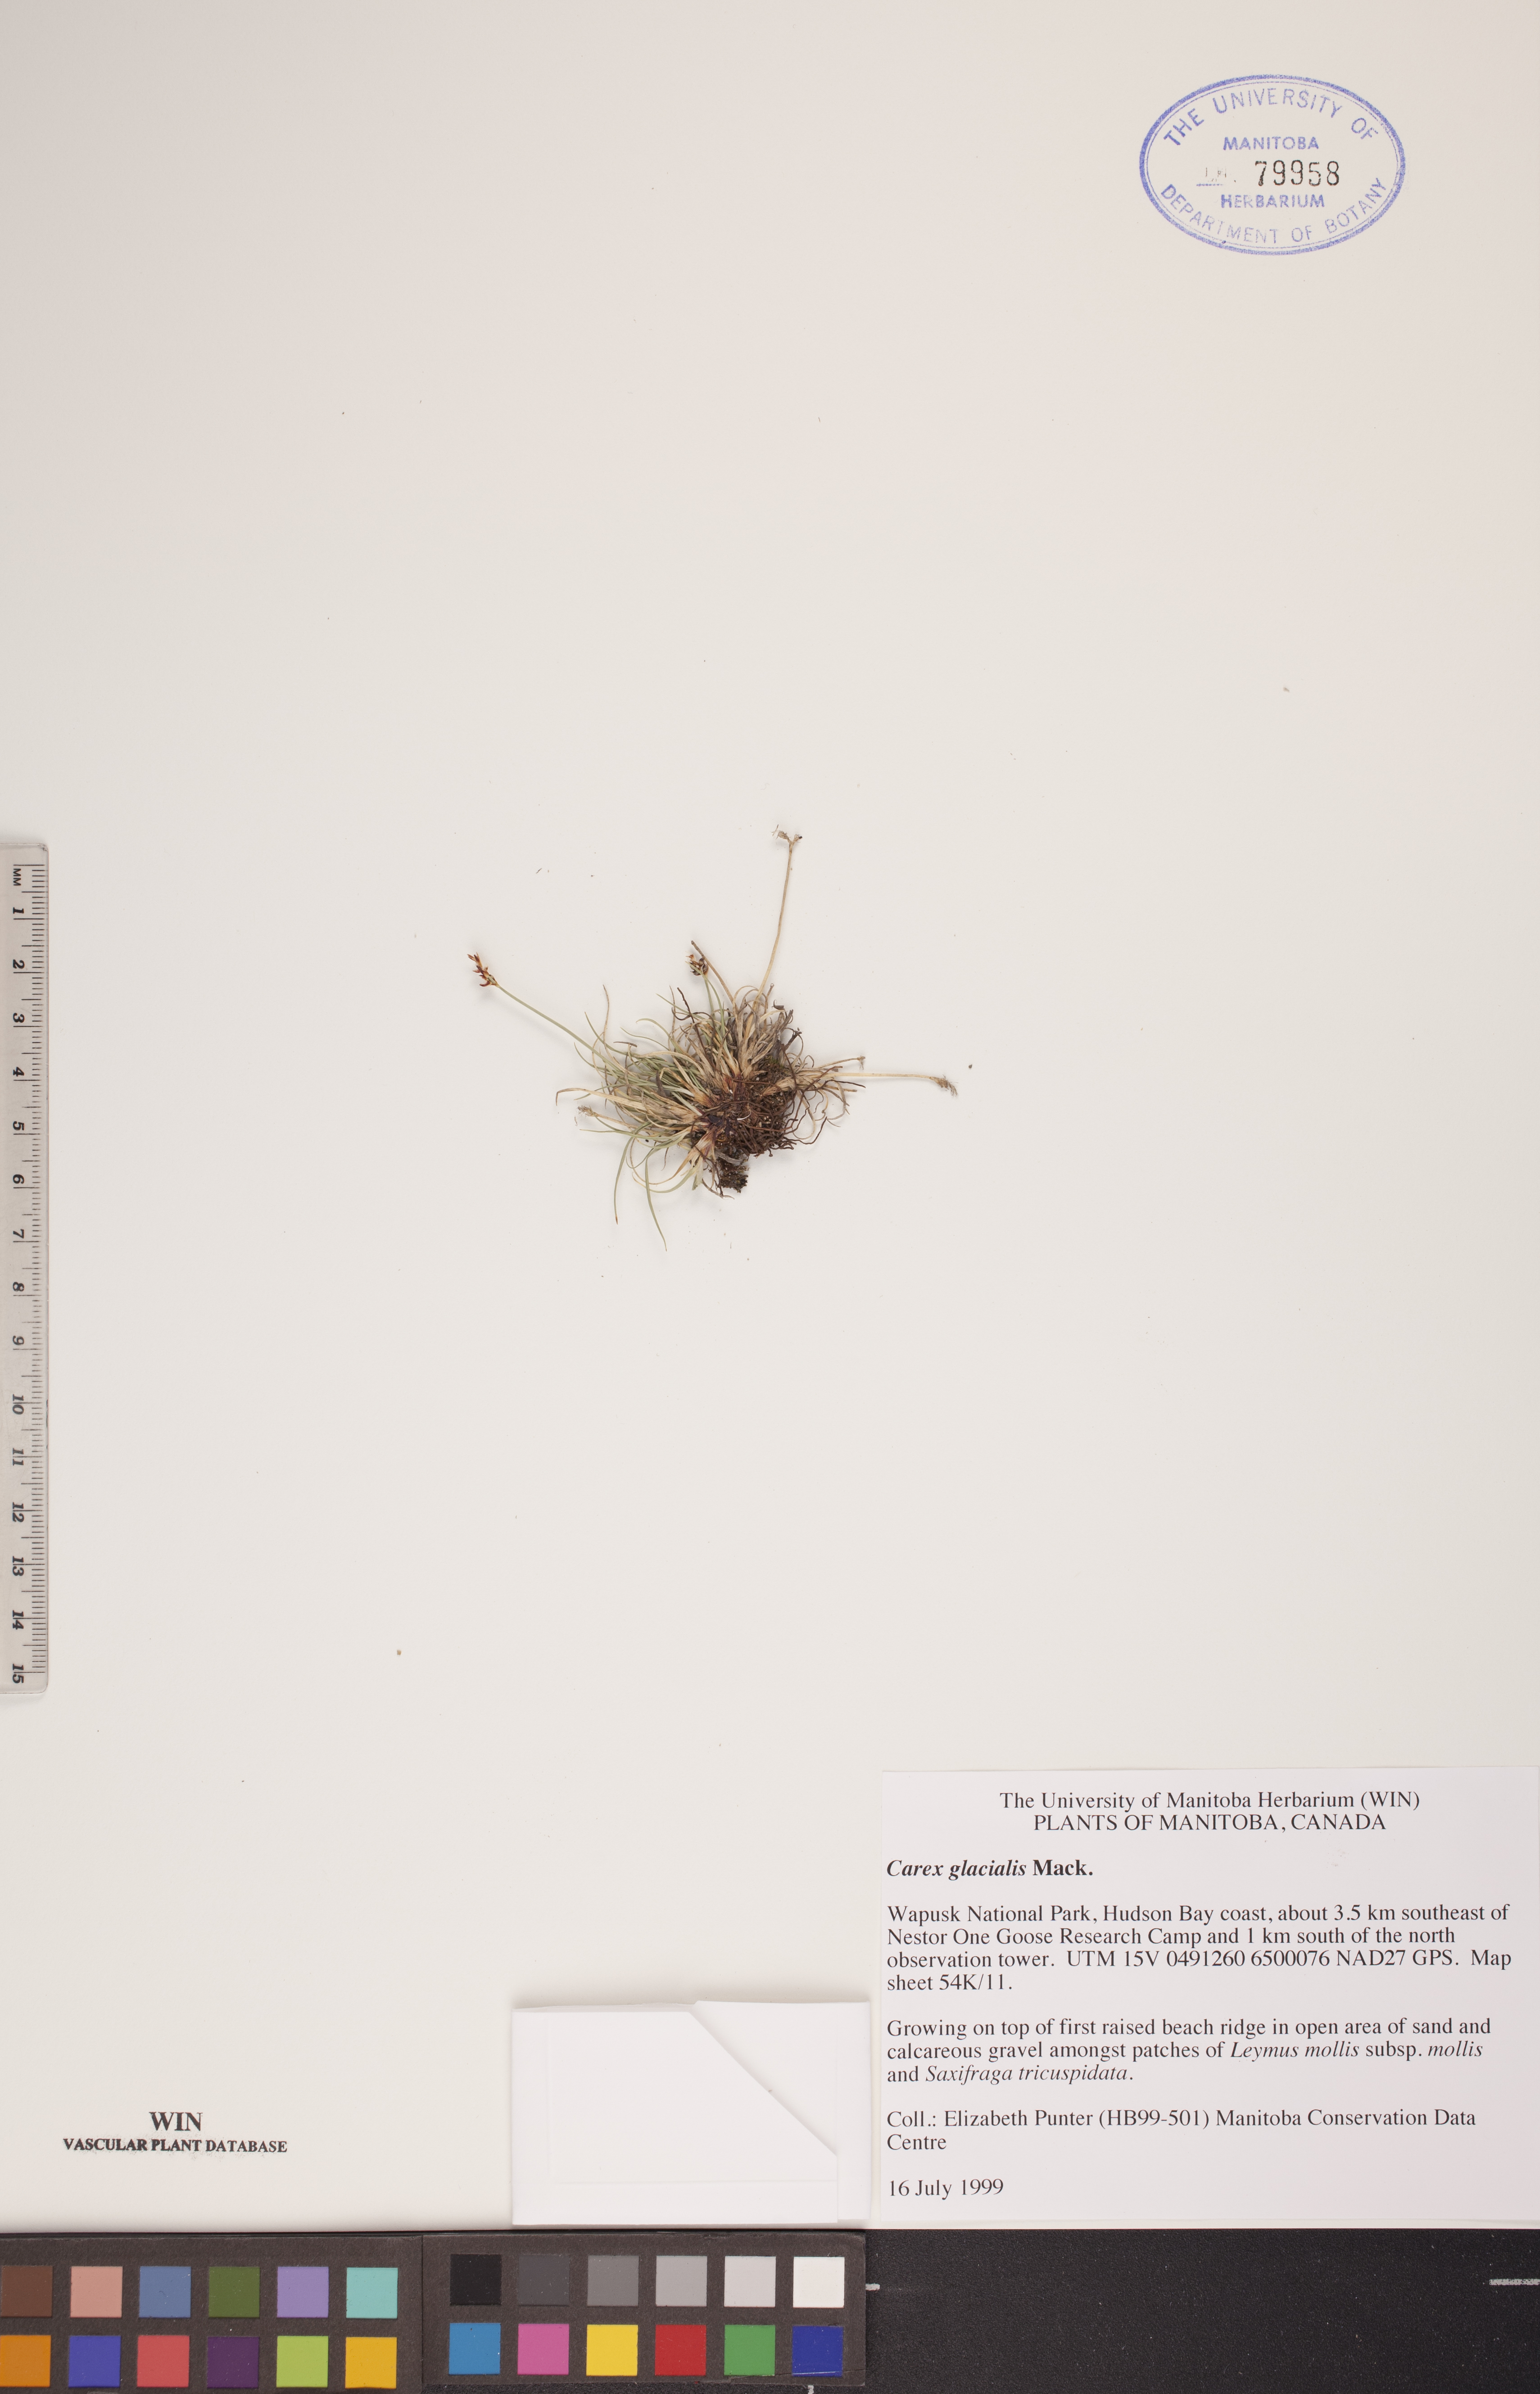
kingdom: Plantae
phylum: Tracheophyta
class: Liliopsida
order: Poales
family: Cyperaceae
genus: Carex
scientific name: Carex glacialis
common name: Newfoundland sedge
